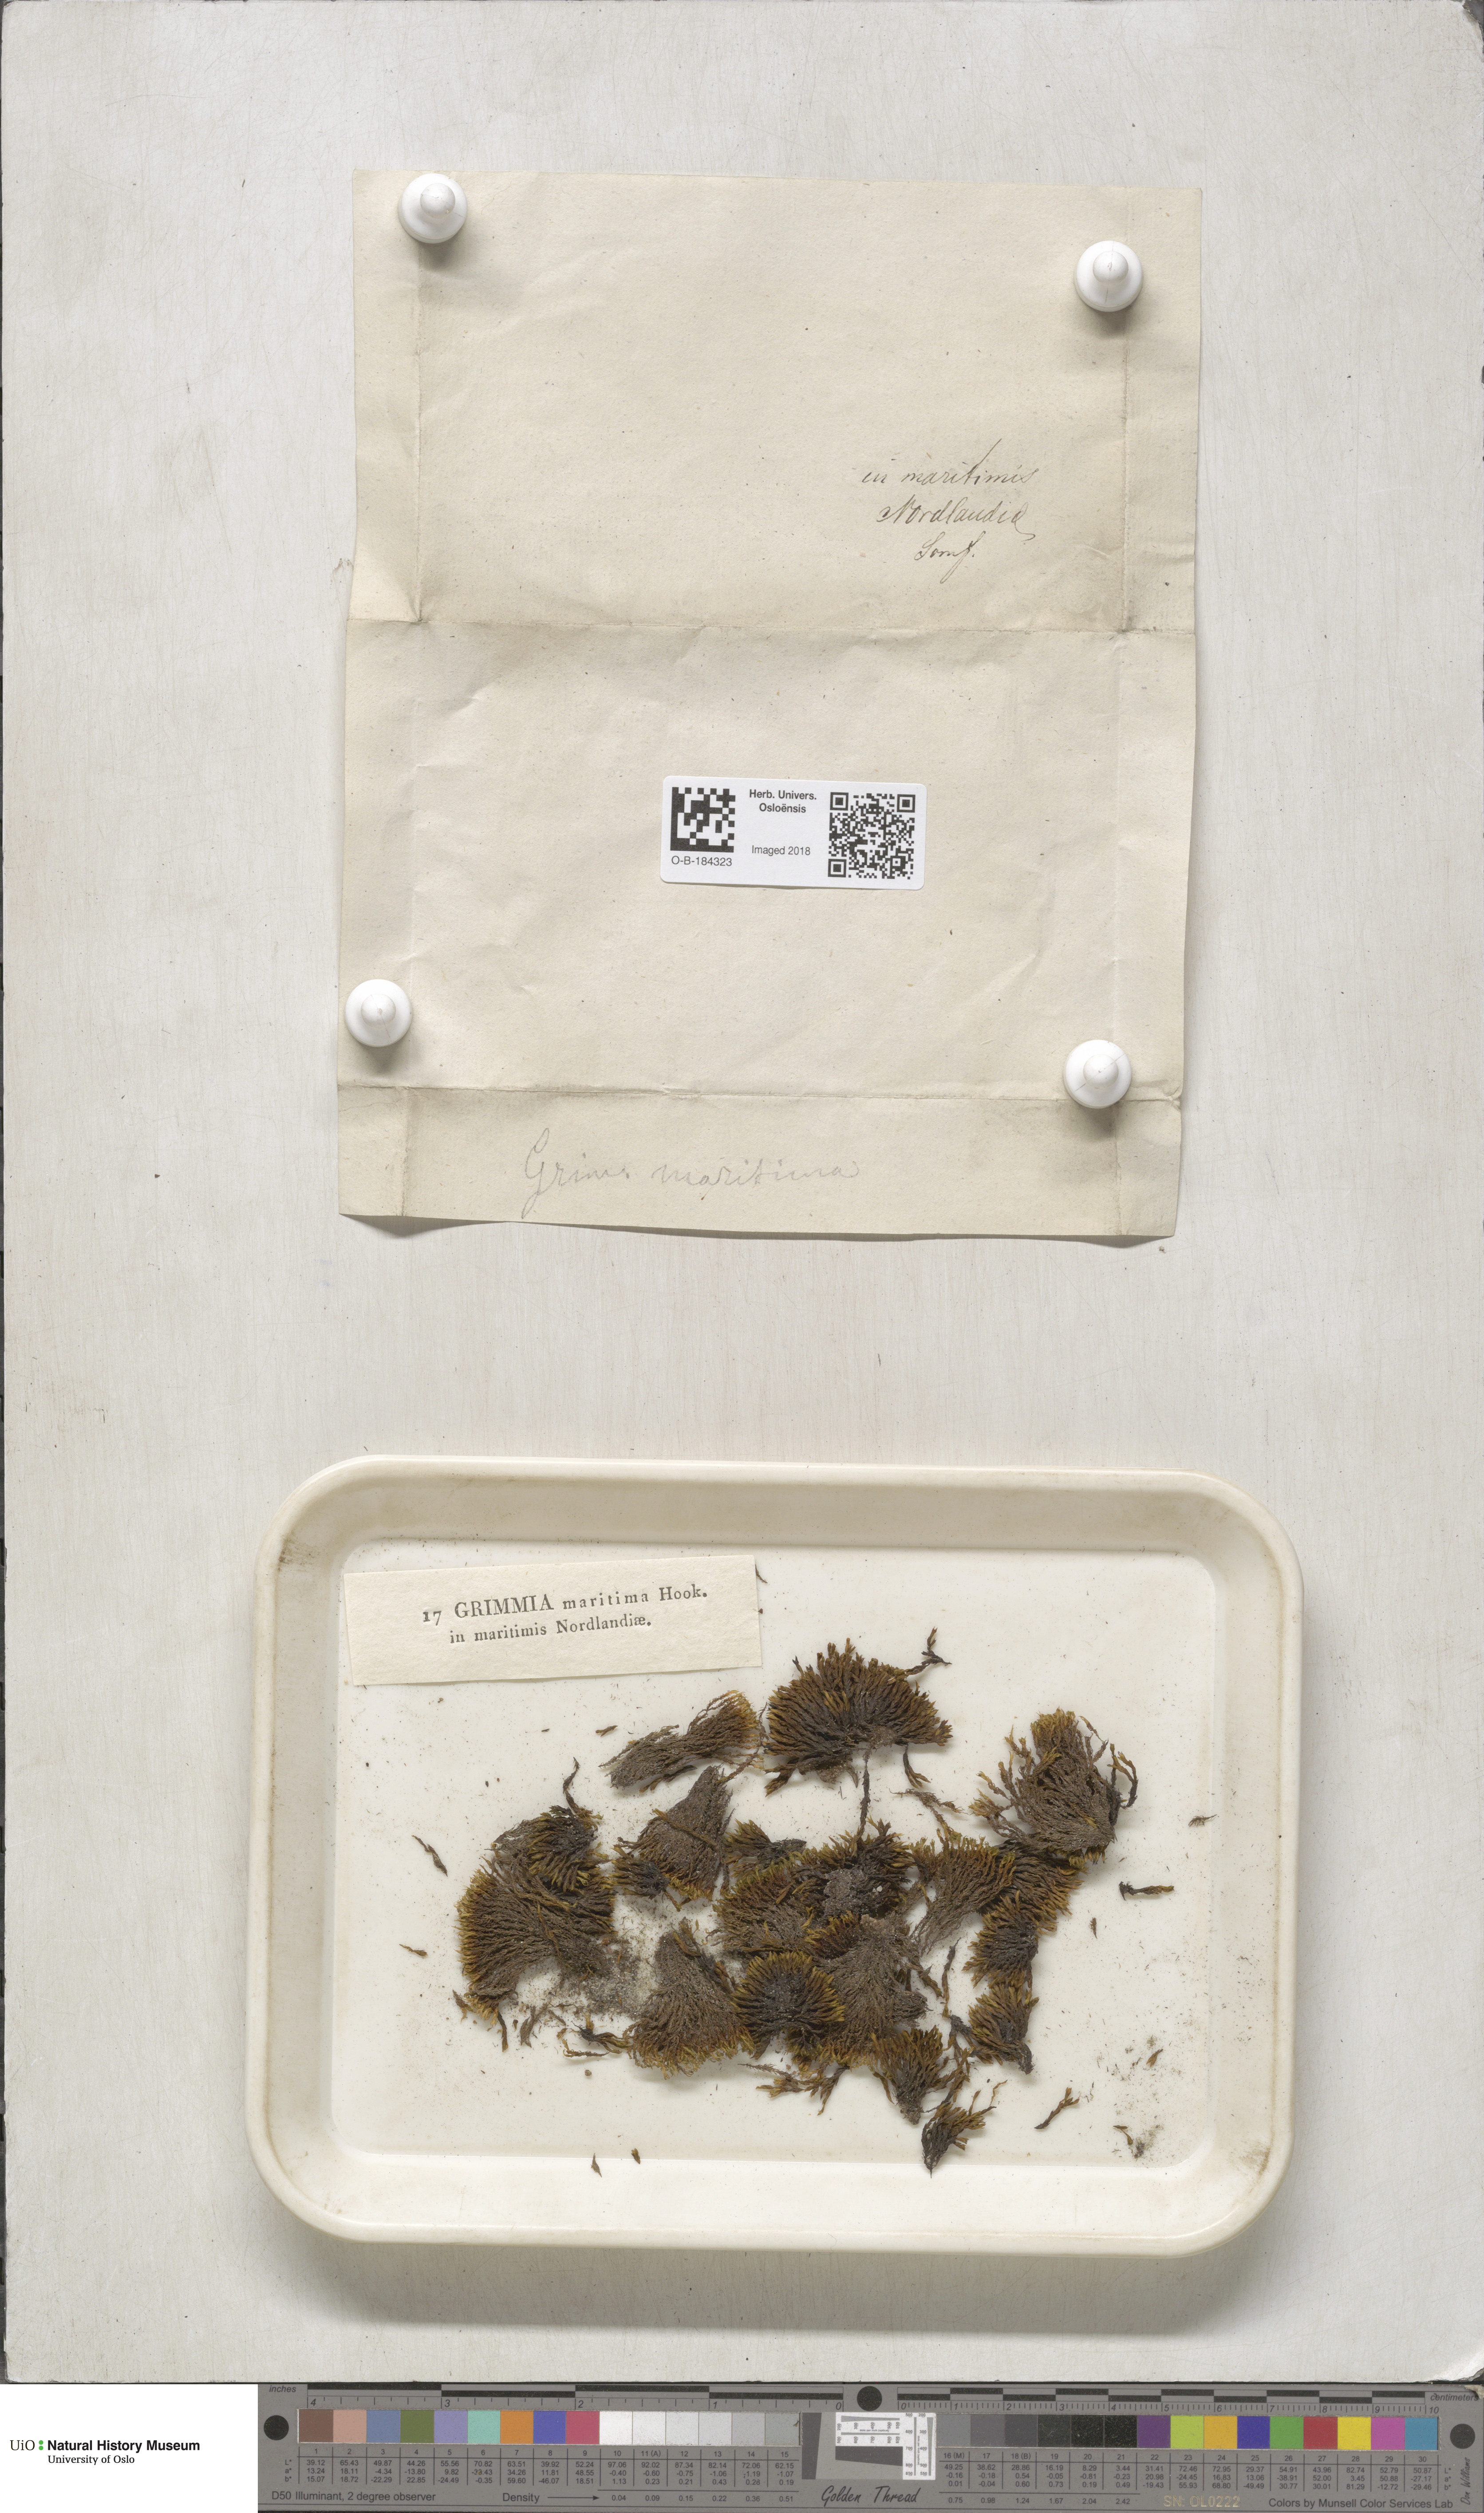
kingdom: Plantae
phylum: Bryophyta
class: Bryopsida
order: Grimmiales
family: Grimmiaceae
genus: Schistidium
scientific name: Schistidium maritimum
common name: Seaside bloom moss
